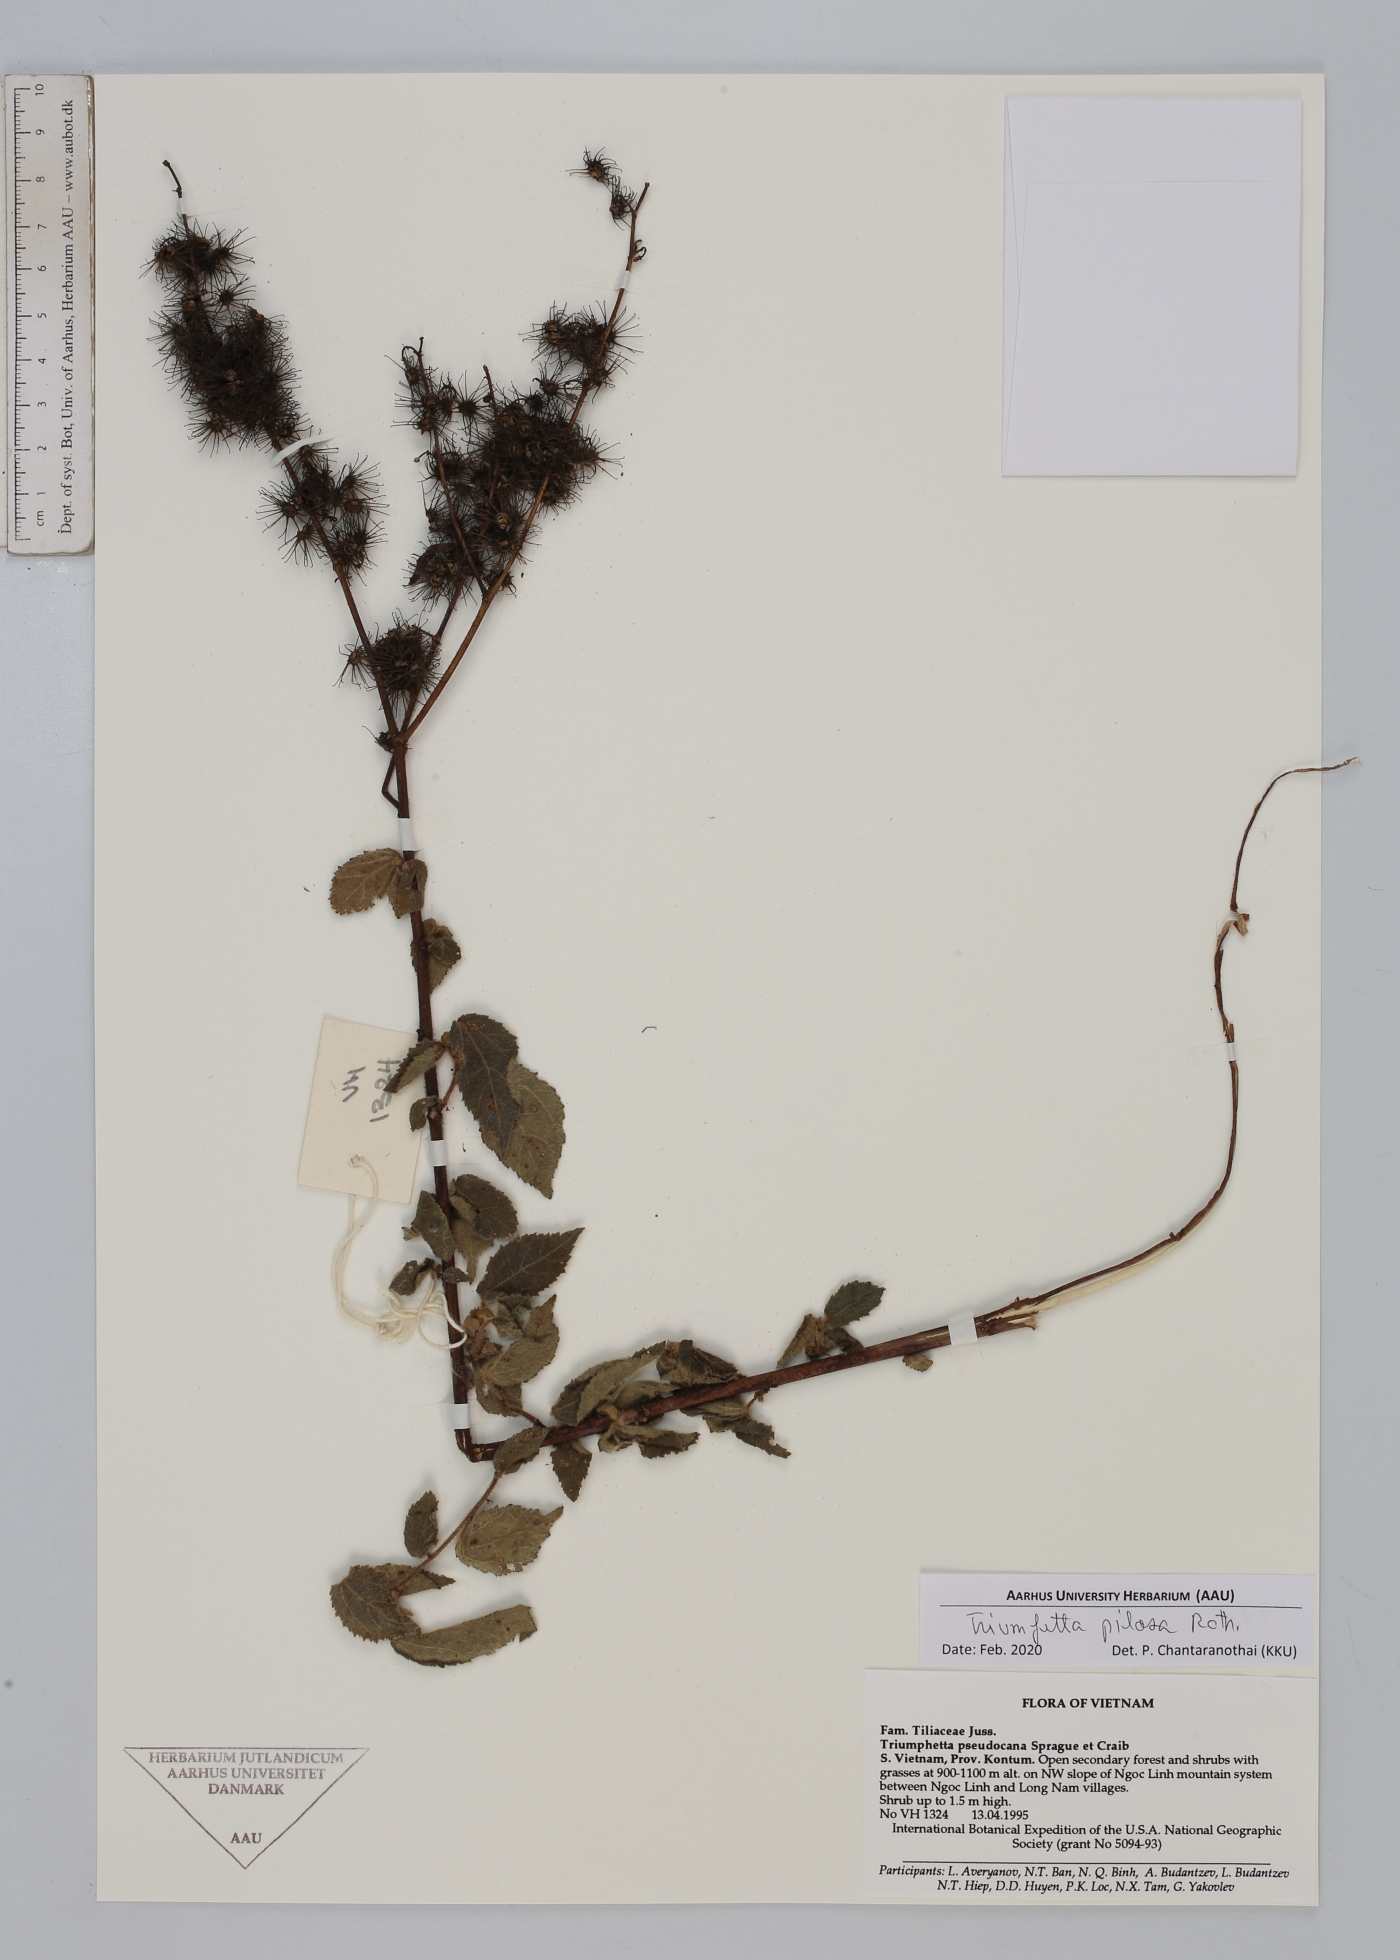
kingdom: Plantae
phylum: Tracheophyta
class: Magnoliopsida
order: Malvales
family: Malvaceae
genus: Triumfetta
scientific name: Triumfetta pilosa
